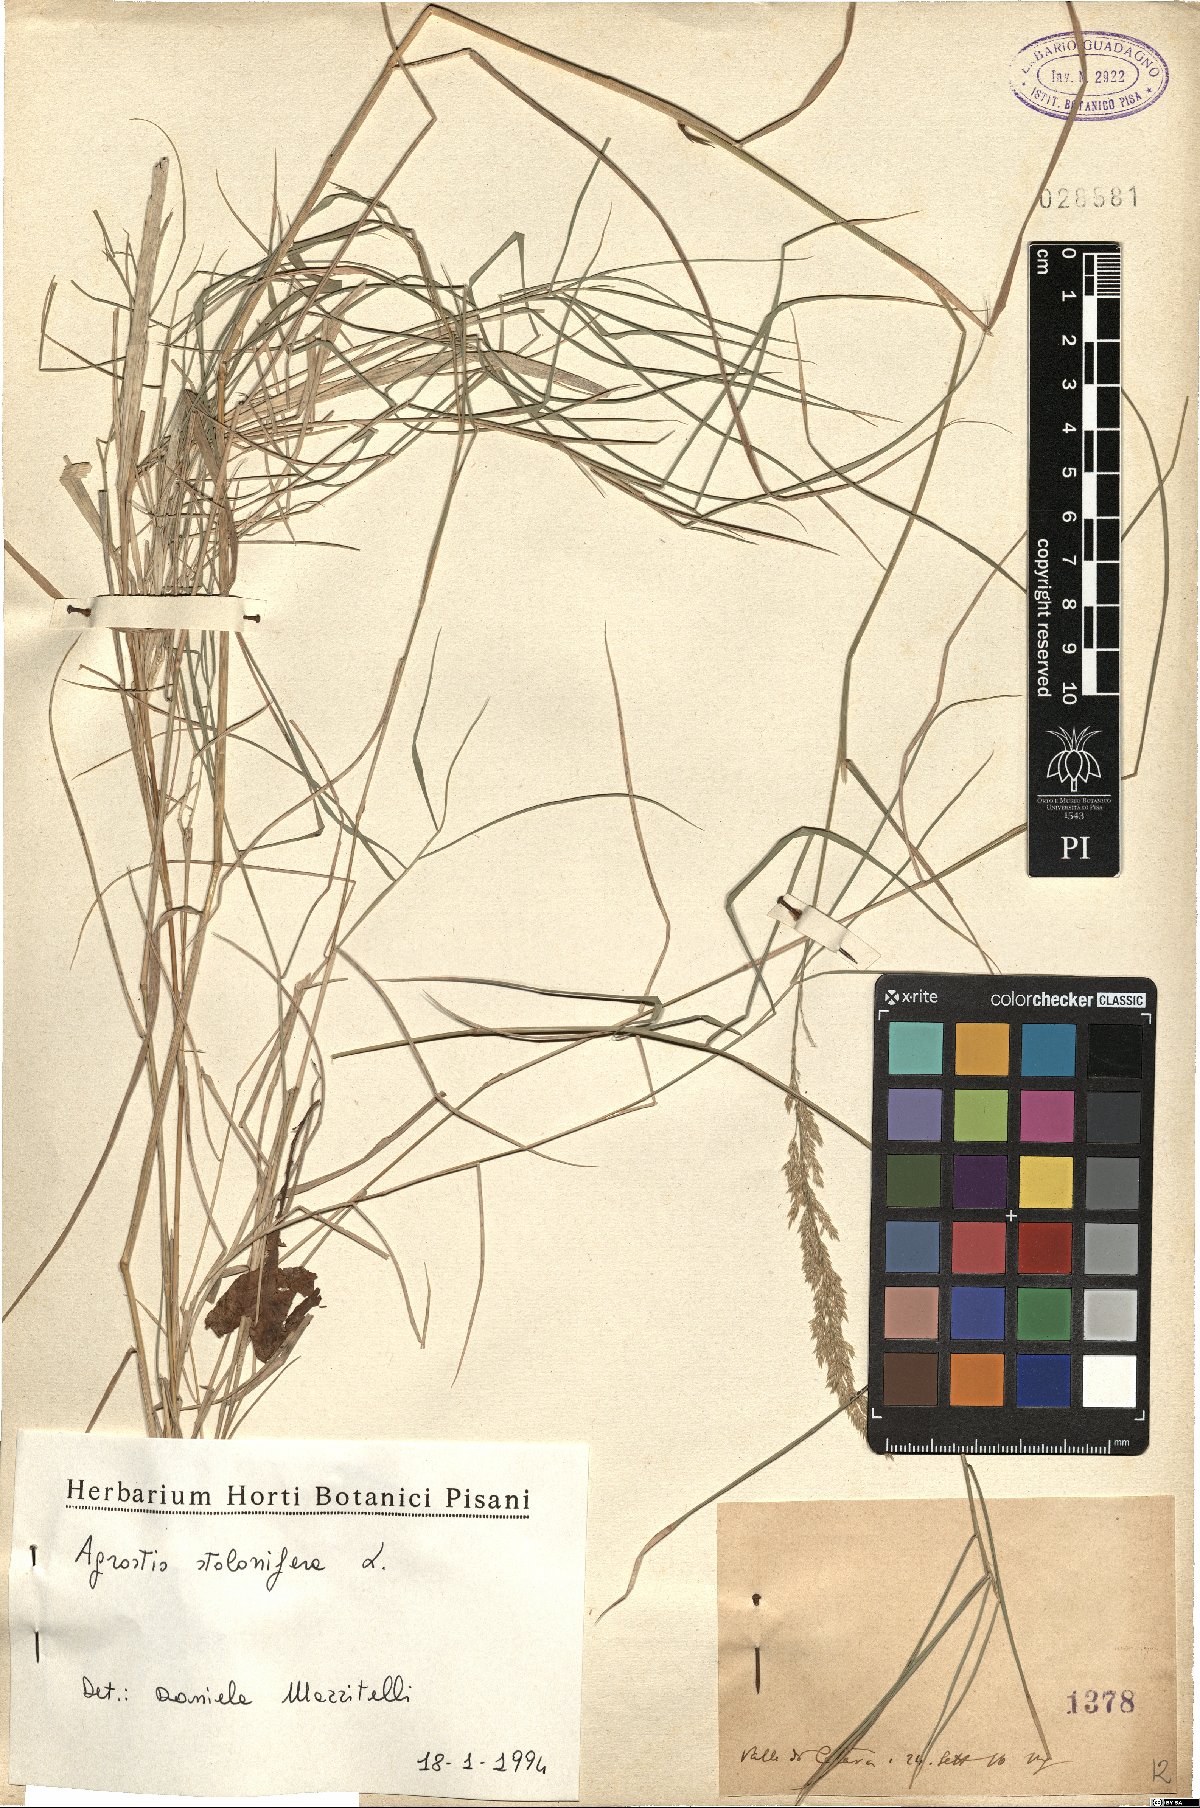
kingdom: Plantae
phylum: Tracheophyta
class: Liliopsida
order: Poales
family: Poaceae
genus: Agrostis
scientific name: Agrostis stolonifera
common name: Creeping bentgrass
